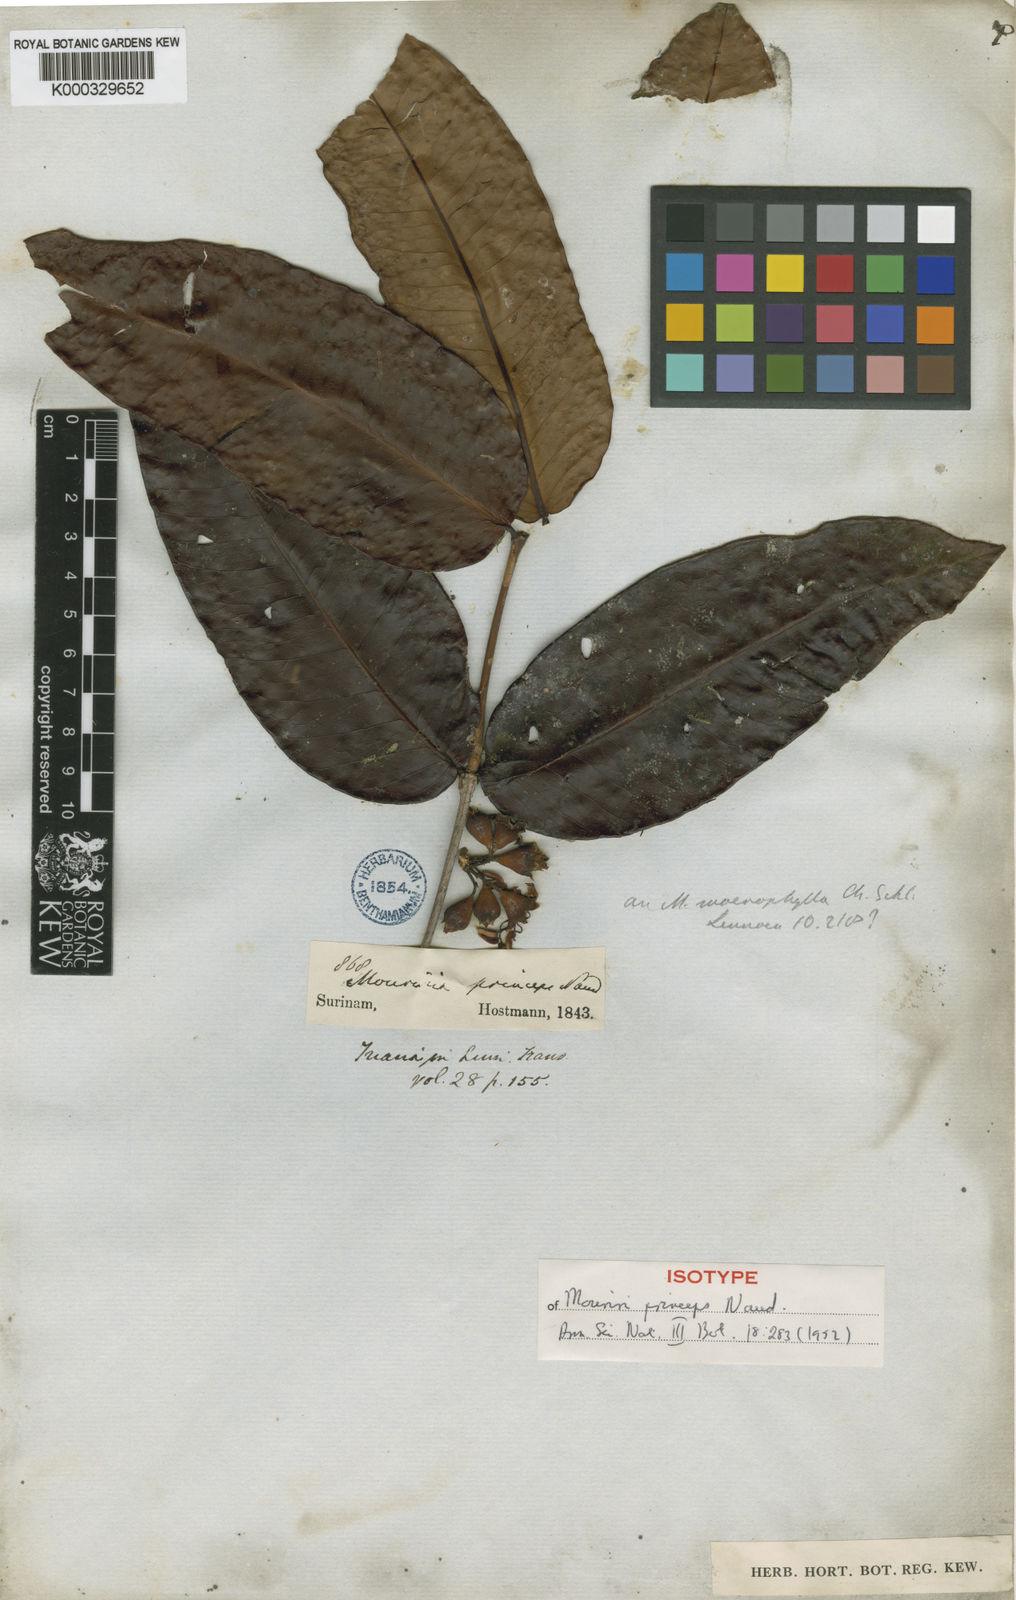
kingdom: Plantae
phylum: Tracheophyta
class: Magnoliopsida
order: Myrtales
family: Melastomataceae
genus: Mouriri
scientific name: Mouriri grandiflora
